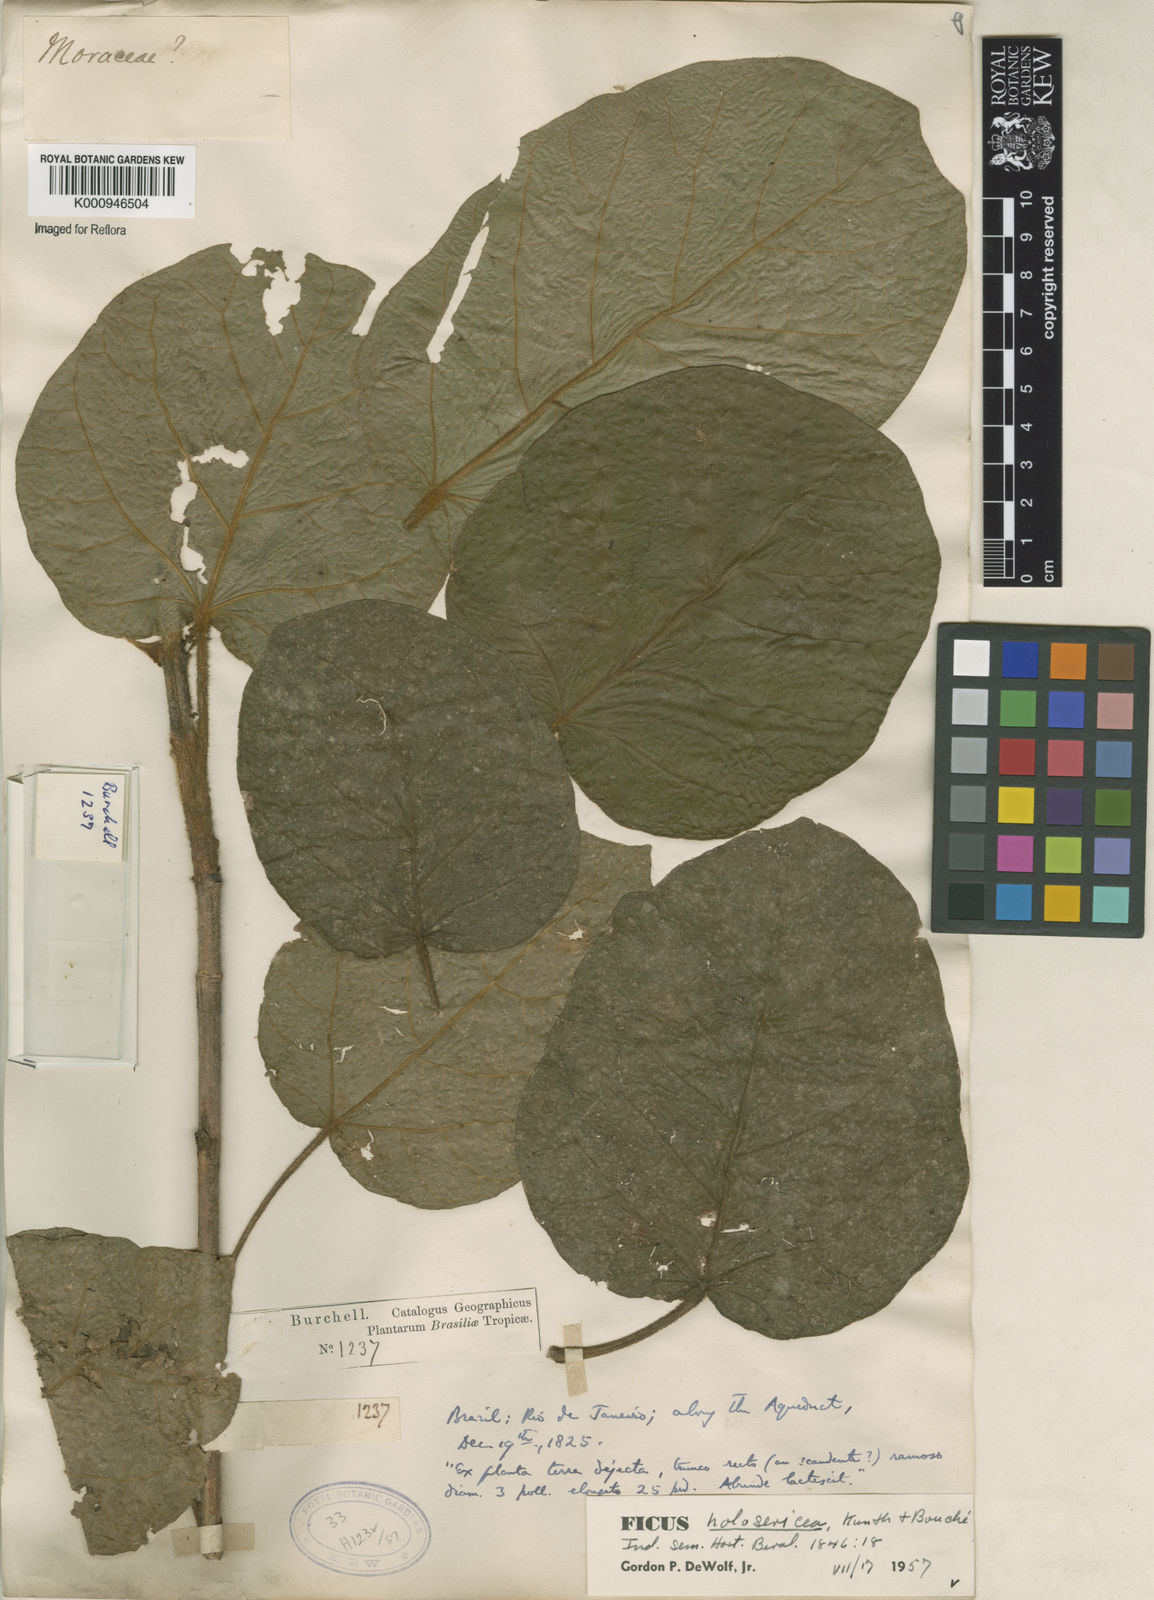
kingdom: Plantae
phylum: Tracheophyta
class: Magnoliopsida
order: Rosales
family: Moraceae
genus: Ficus
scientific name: Ficus holosericea
